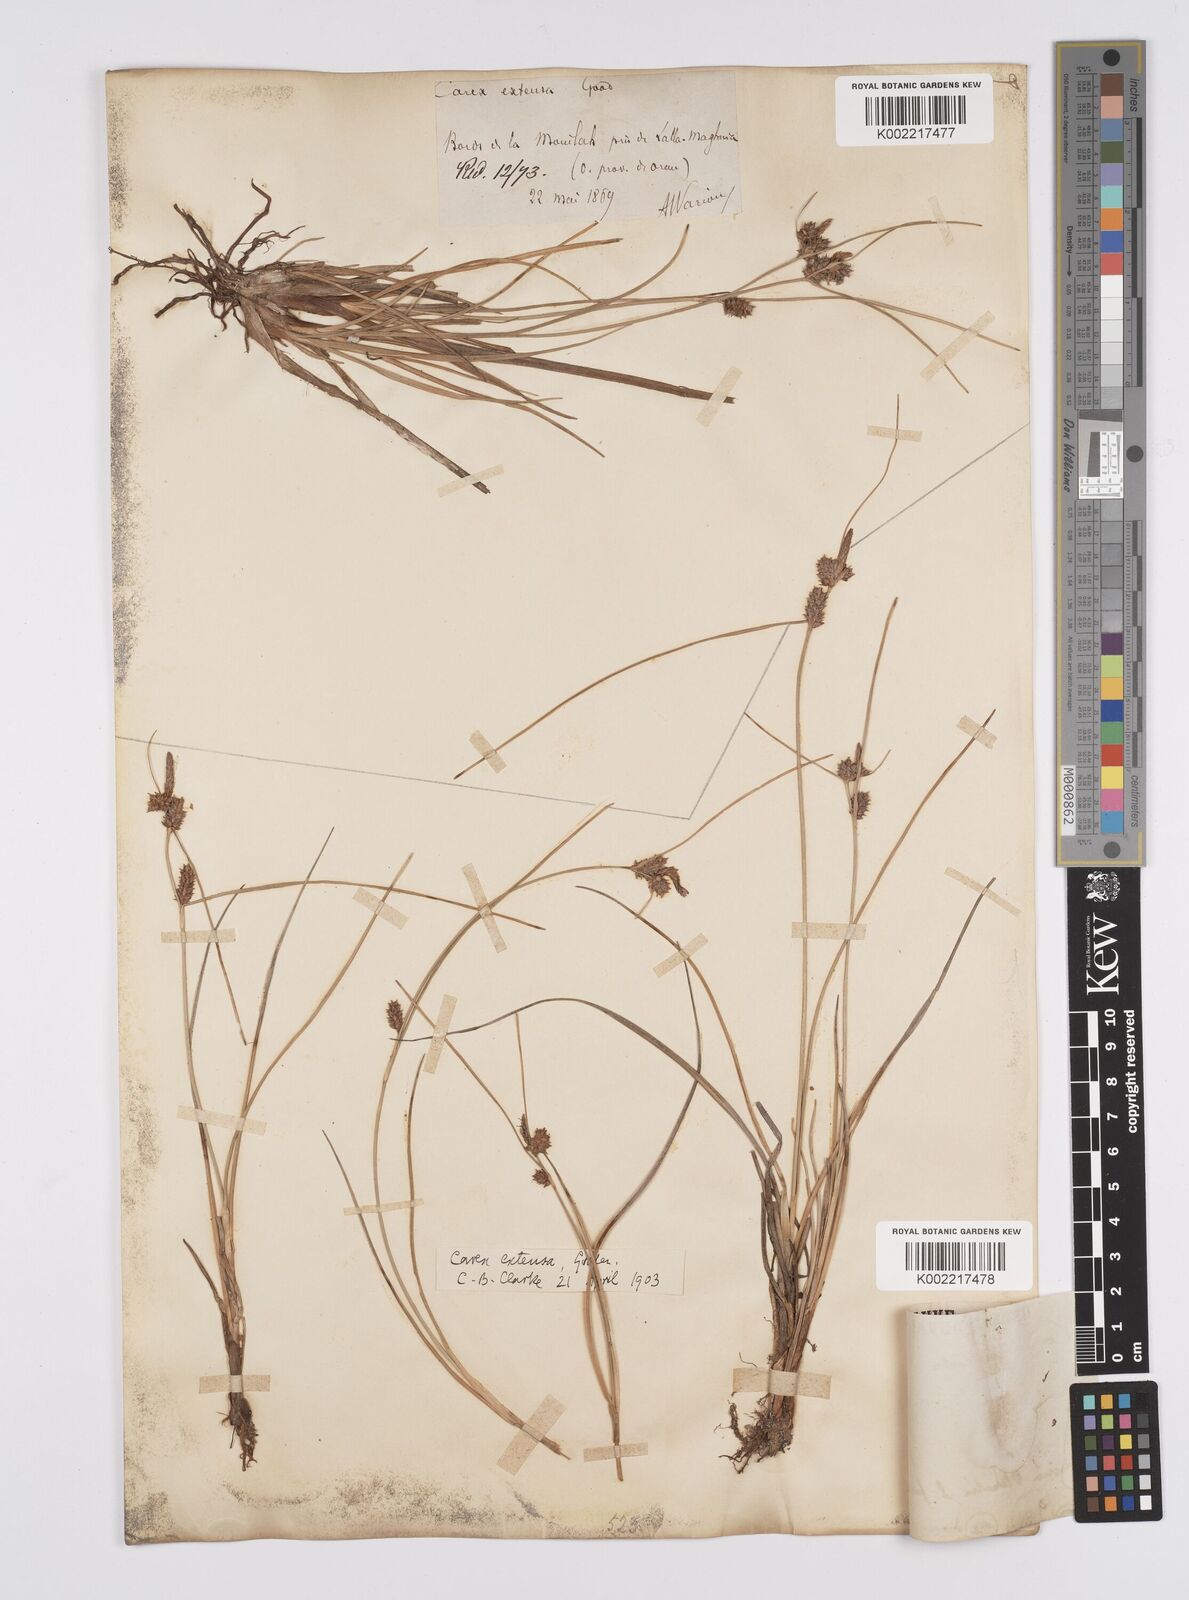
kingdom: Plantae
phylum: Tracheophyta
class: Liliopsida
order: Poales
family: Cyperaceae
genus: Carex
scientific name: Carex extensa
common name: Long-bracted sedge
